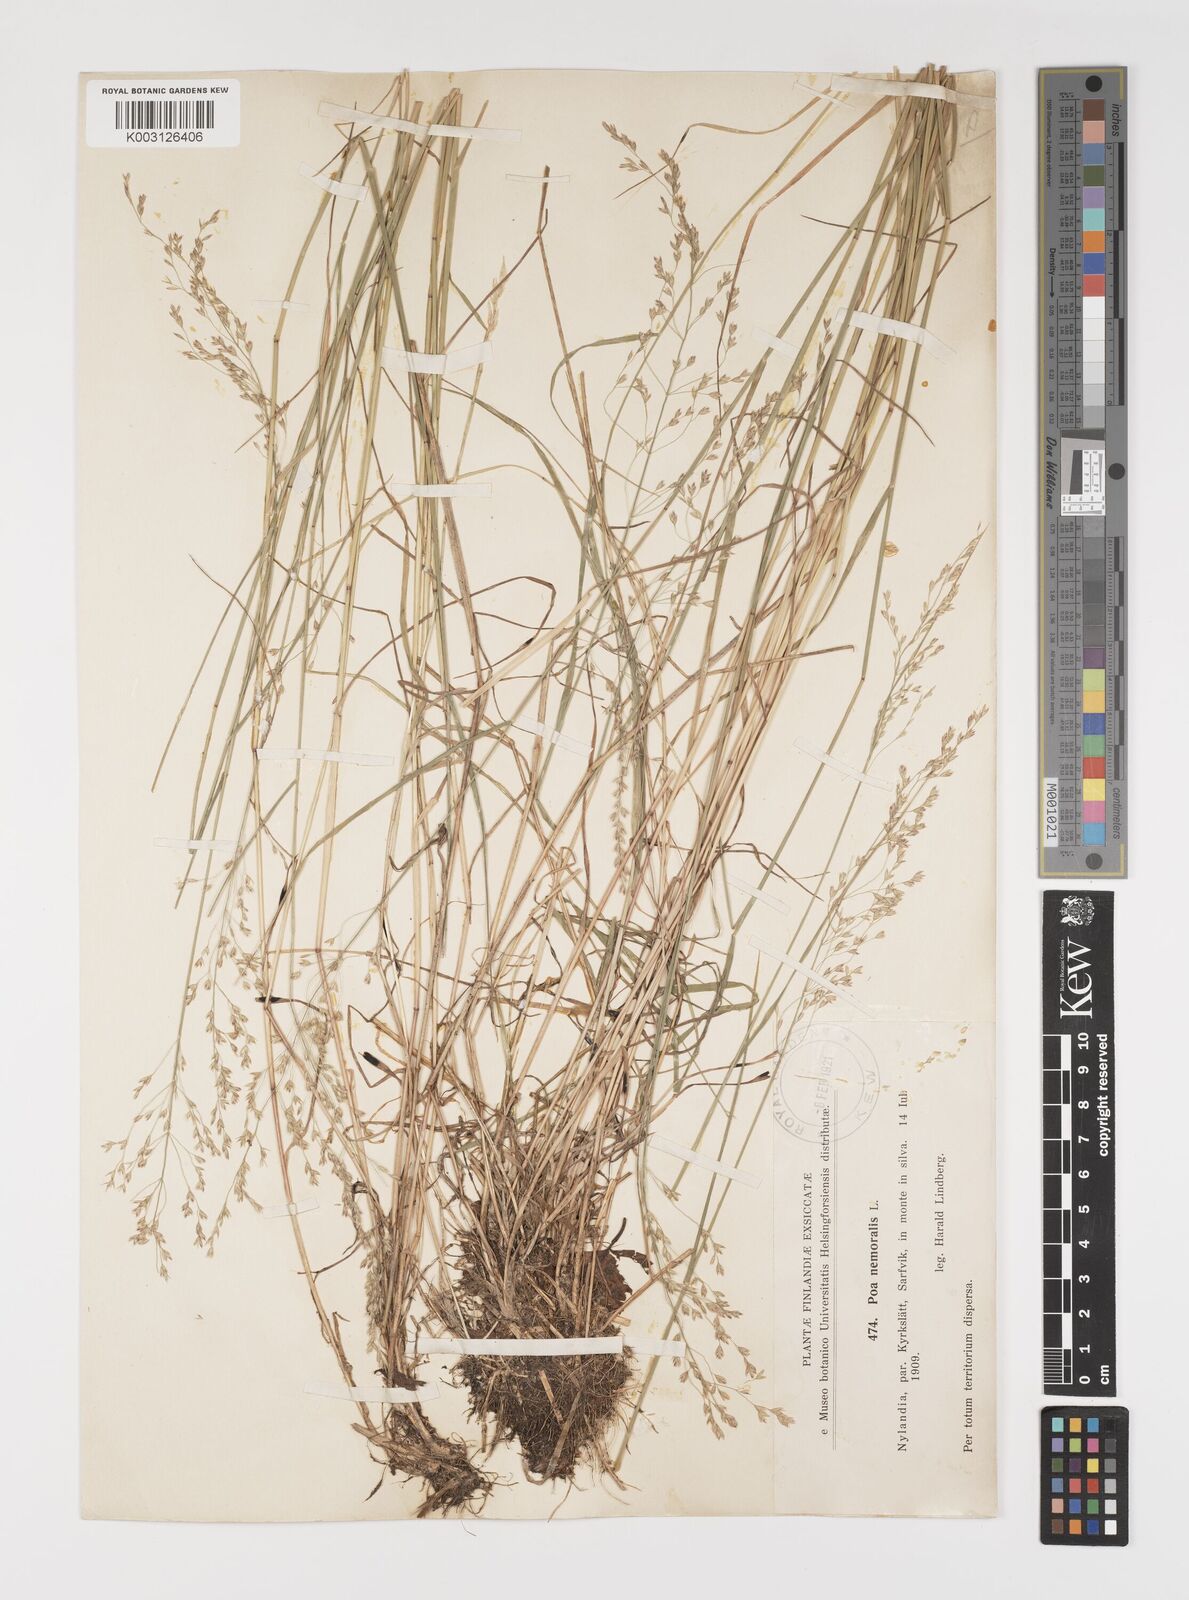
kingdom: Plantae
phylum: Tracheophyta
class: Liliopsida
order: Poales
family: Poaceae
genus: Poa
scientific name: Poa nemoralis
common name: Wood bluegrass
